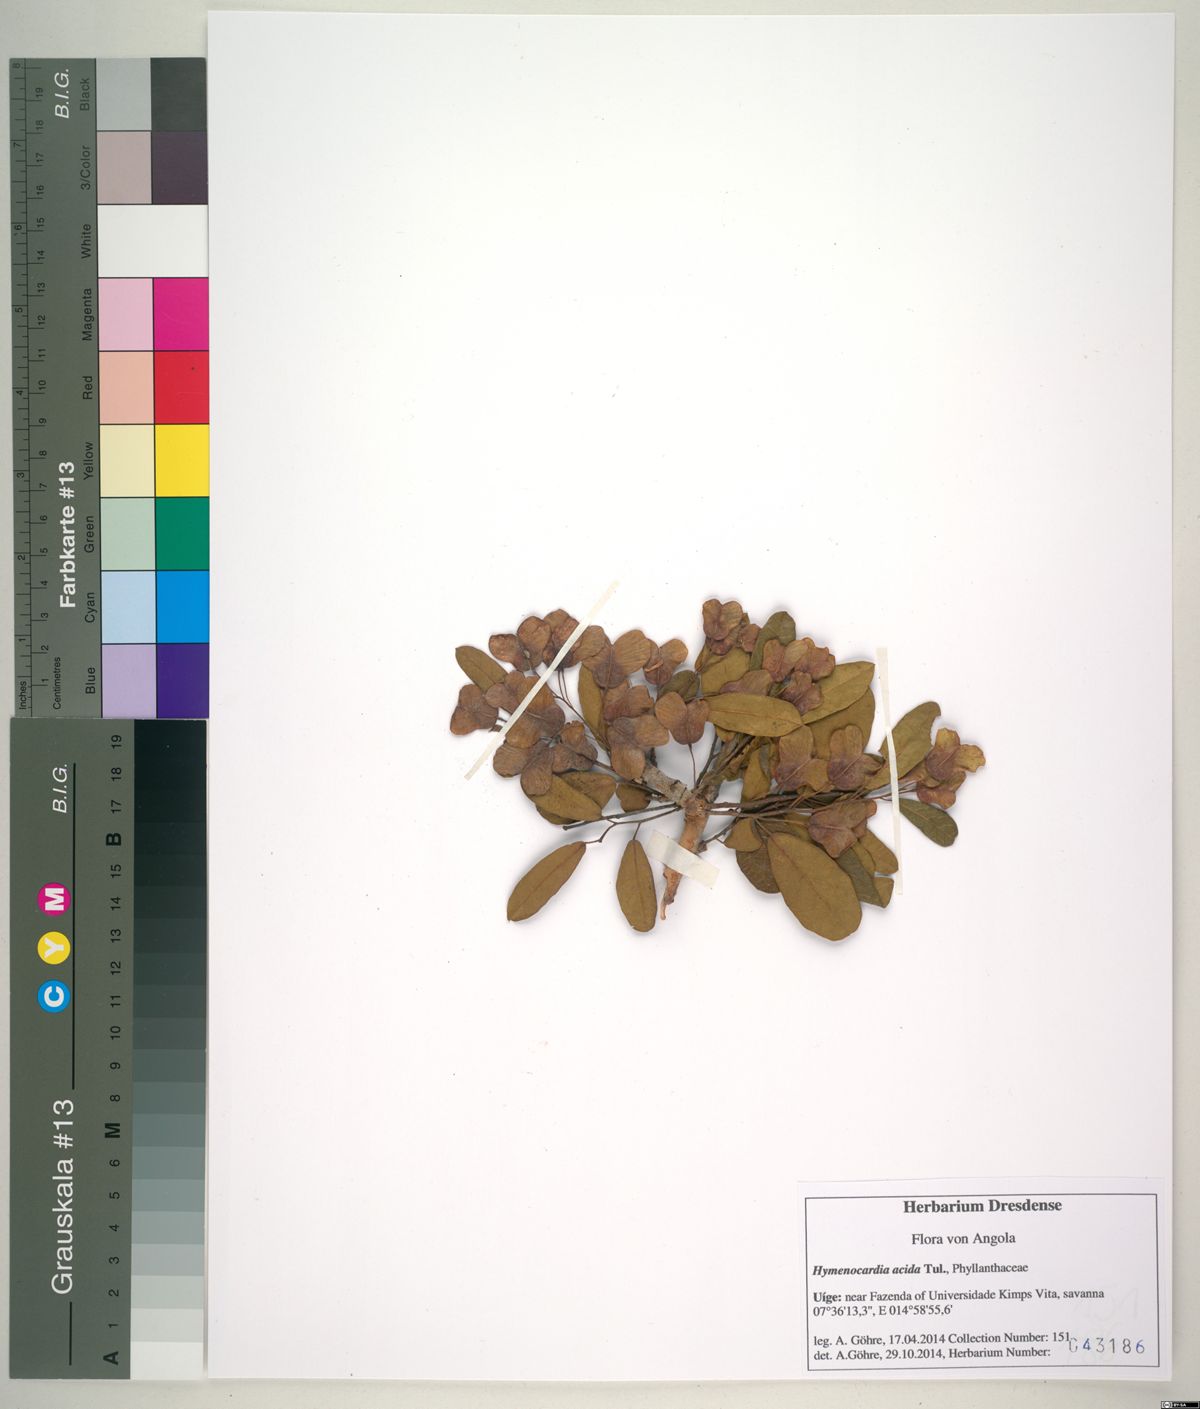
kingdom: Plantae
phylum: Tracheophyta
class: Magnoliopsida
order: Malpighiales
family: Phyllanthaceae
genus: Hymenocardia
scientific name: Hymenocardia acida
